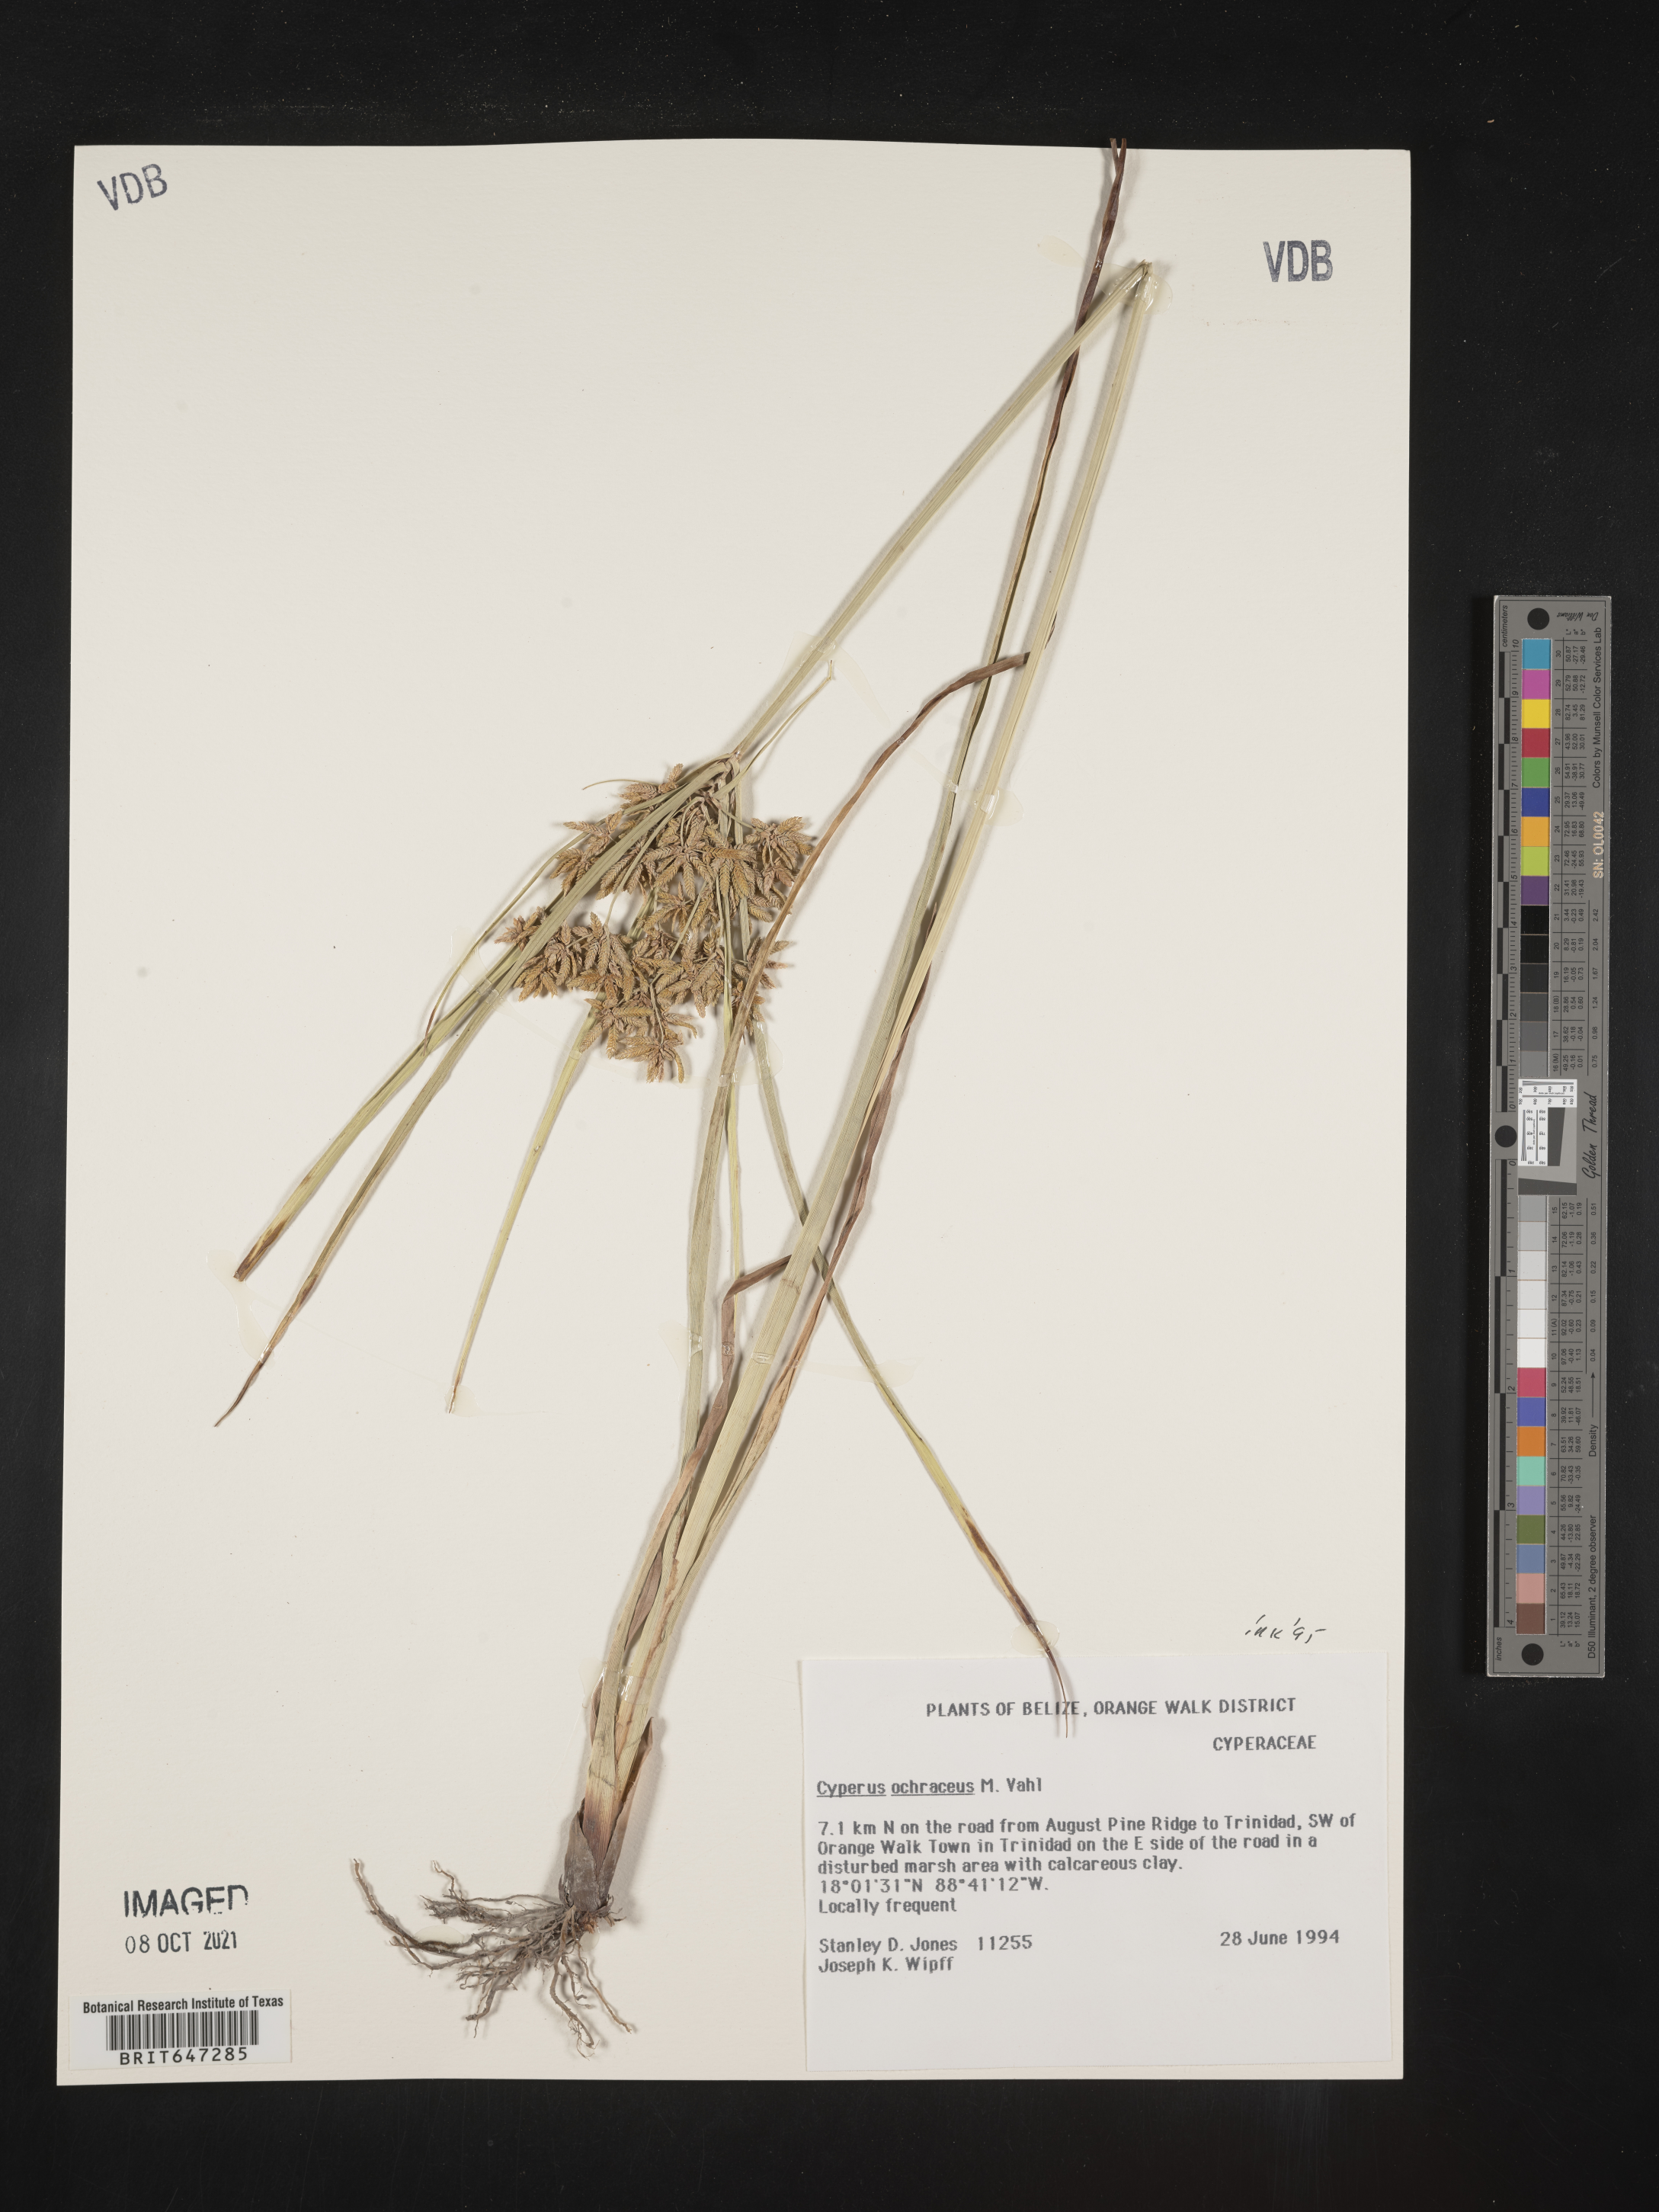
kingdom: Plantae
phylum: Tracheophyta
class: Liliopsida
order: Poales
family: Cyperaceae
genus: Cyperus
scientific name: Cyperus ochraceus
